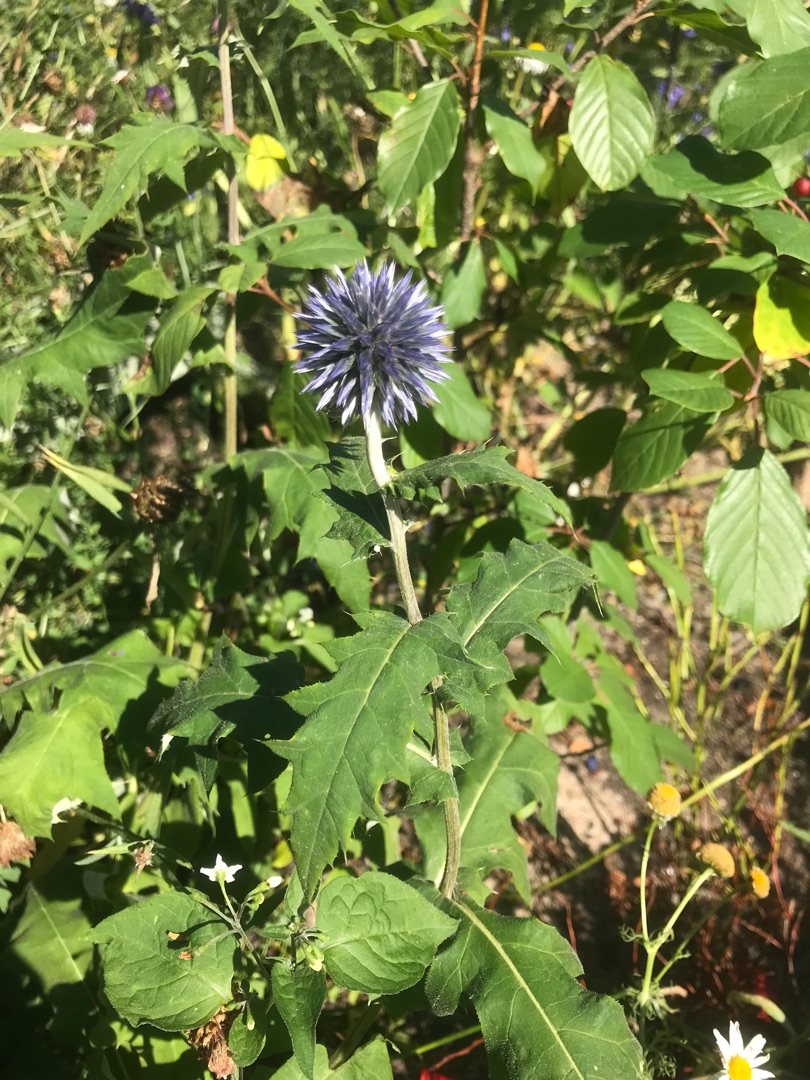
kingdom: Plantae
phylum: Tracheophyta
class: Magnoliopsida
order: Asterales
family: Asteraceae
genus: Echinops
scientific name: Echinops bannaticus
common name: Blå tidselkugle
